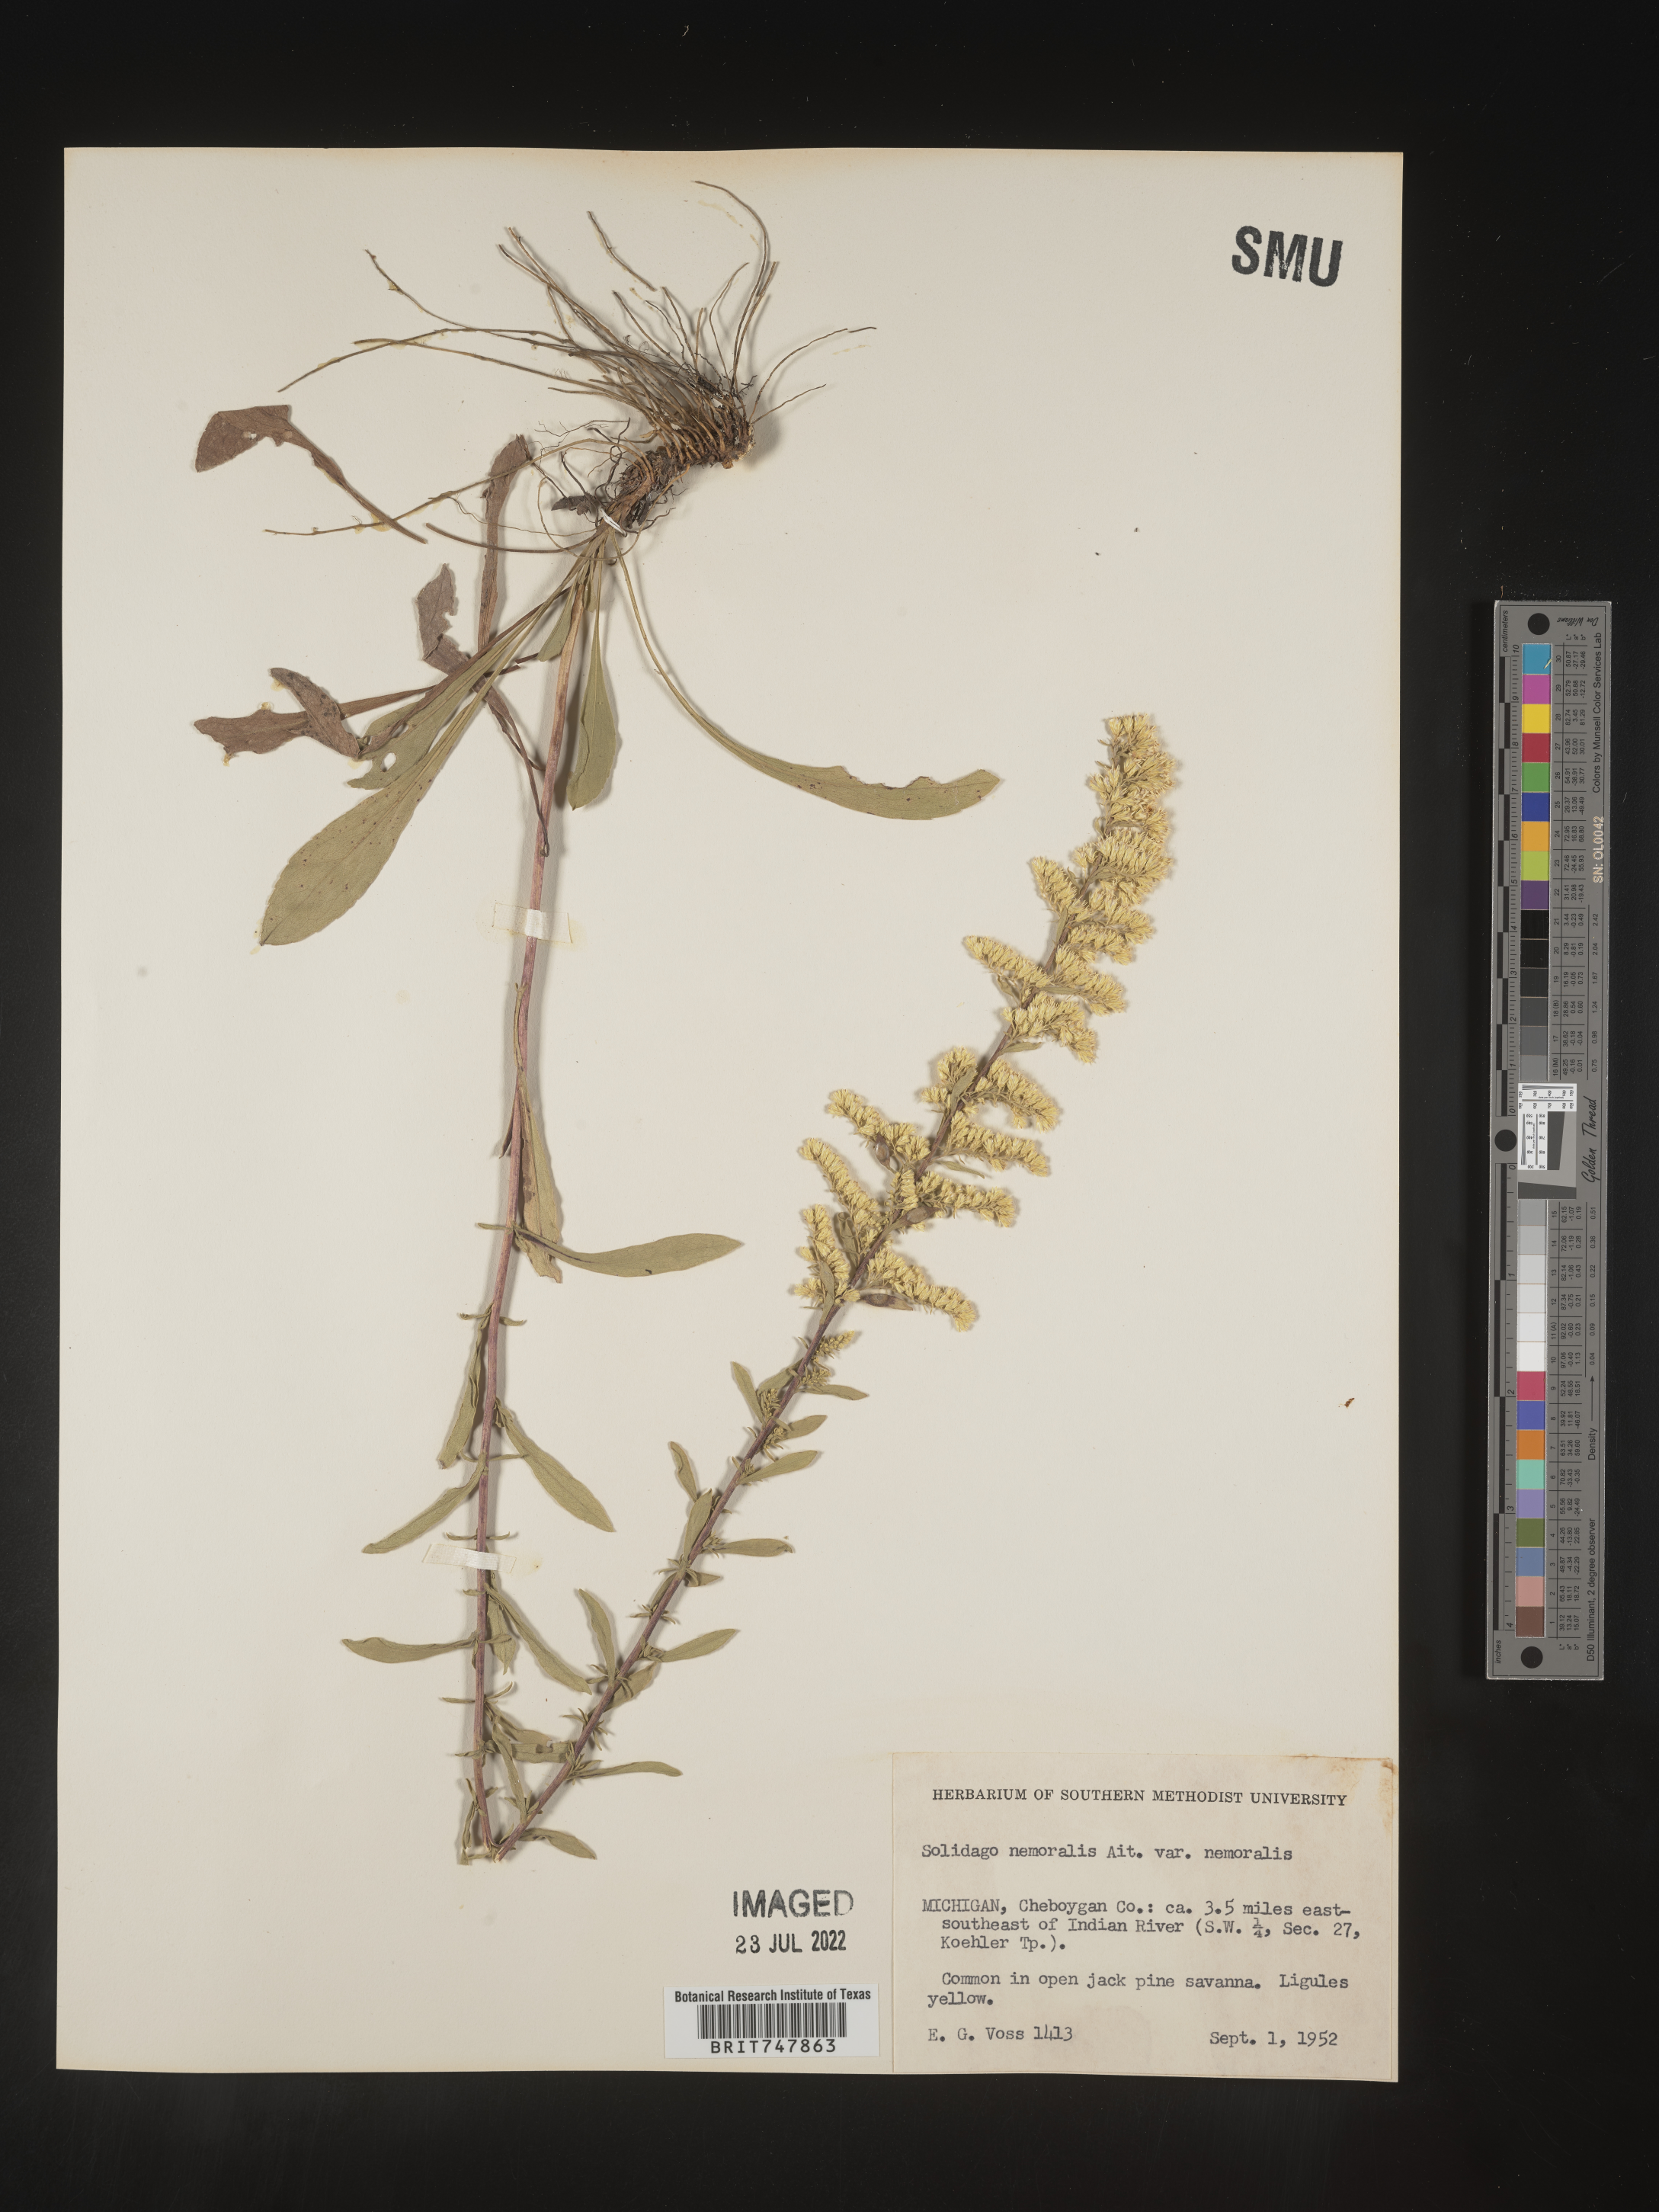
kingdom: Plantae
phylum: Tracheophyta
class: Magnoliopsida
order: Asterales
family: Asteraceae
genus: Solidago
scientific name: Solidago nemoralis
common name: Grey goldenrod
